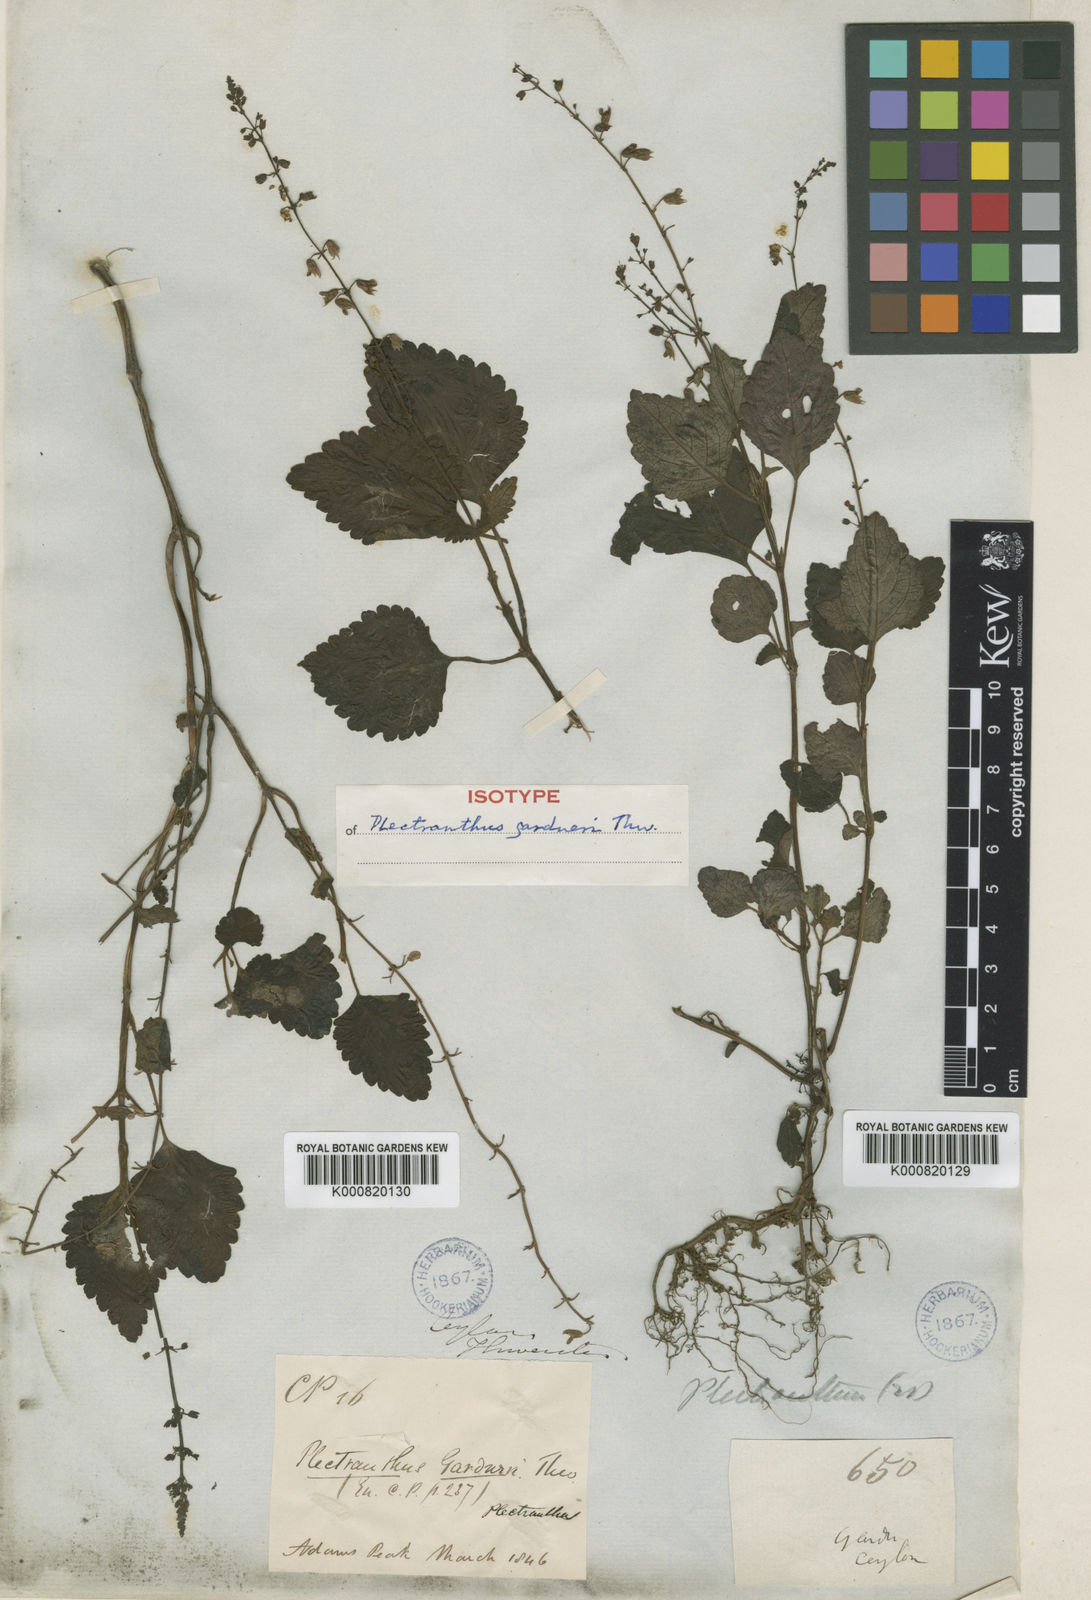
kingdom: Plantae
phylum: Tracheophyta
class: Magnoliopsida
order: Lamiales
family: Lamiaceae
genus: Plectranthus
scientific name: Plectranthus gardneri
